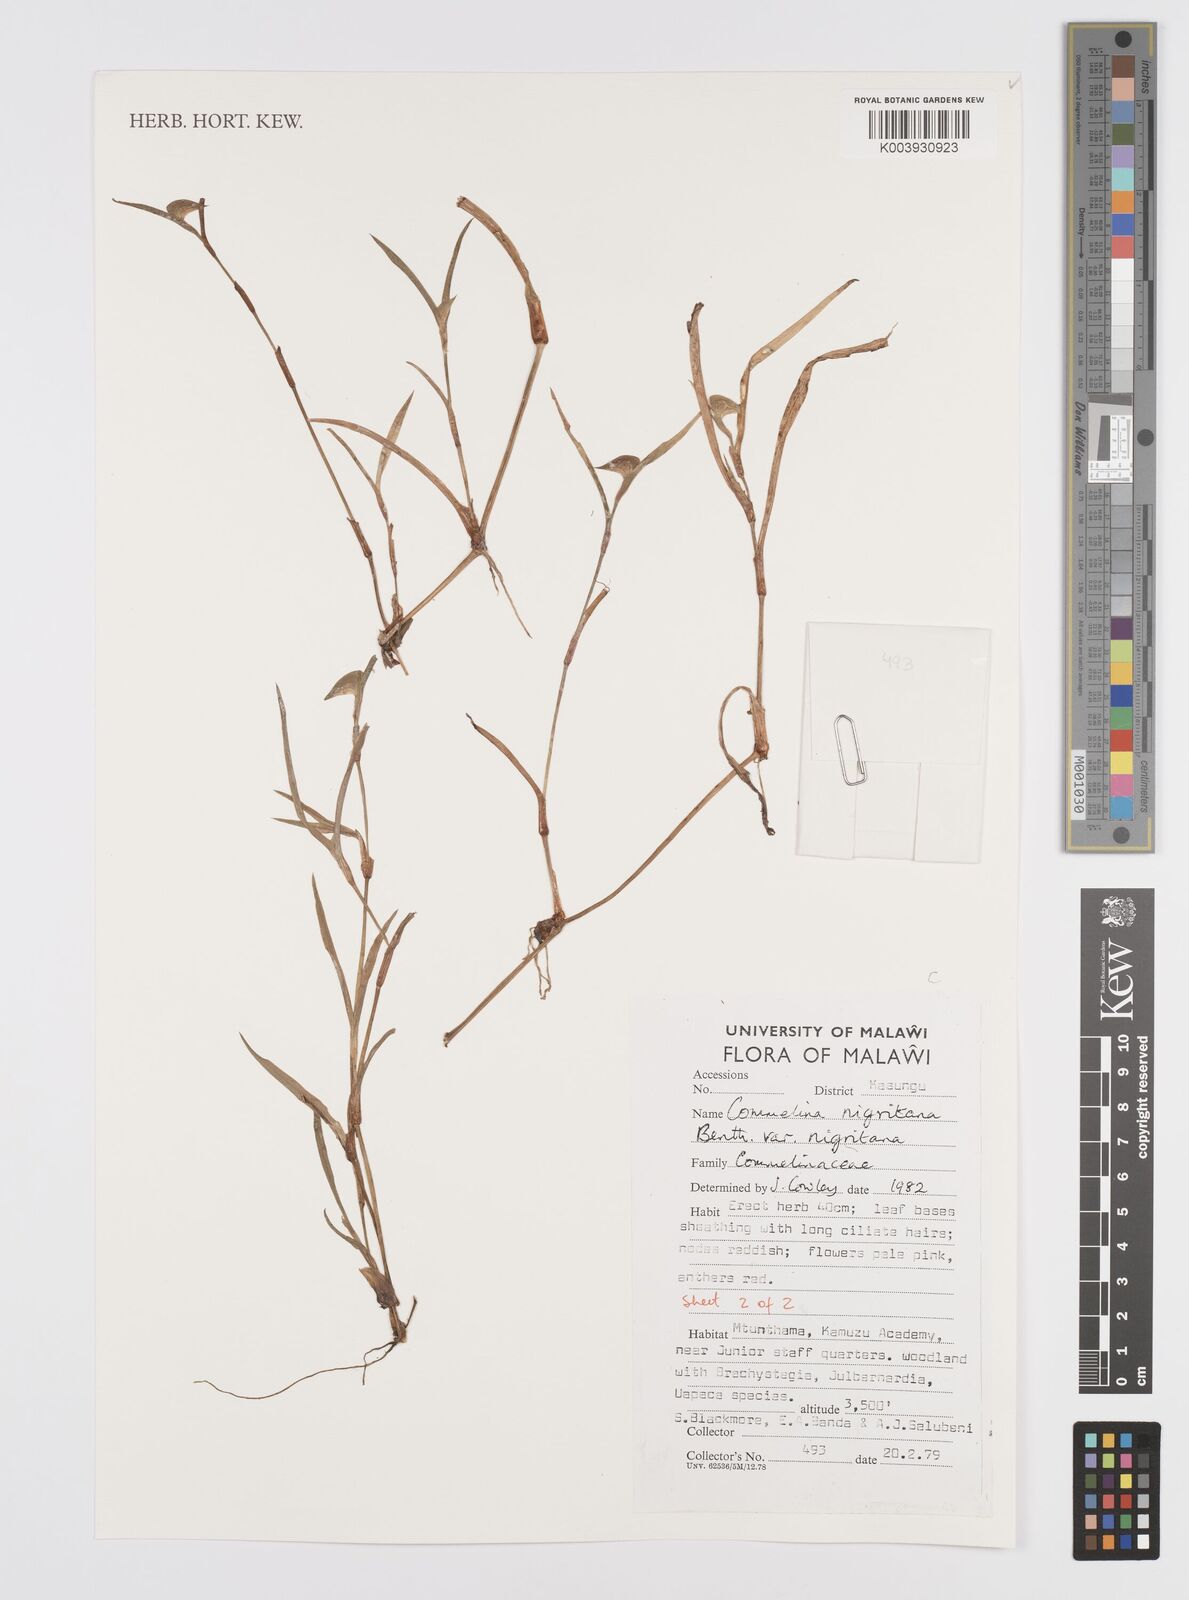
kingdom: Plantae
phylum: Tracheophyta
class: Liliopsida
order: Commelinales
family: Commelinaceae
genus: Commelina
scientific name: Commelina nigritana
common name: African dayflower
